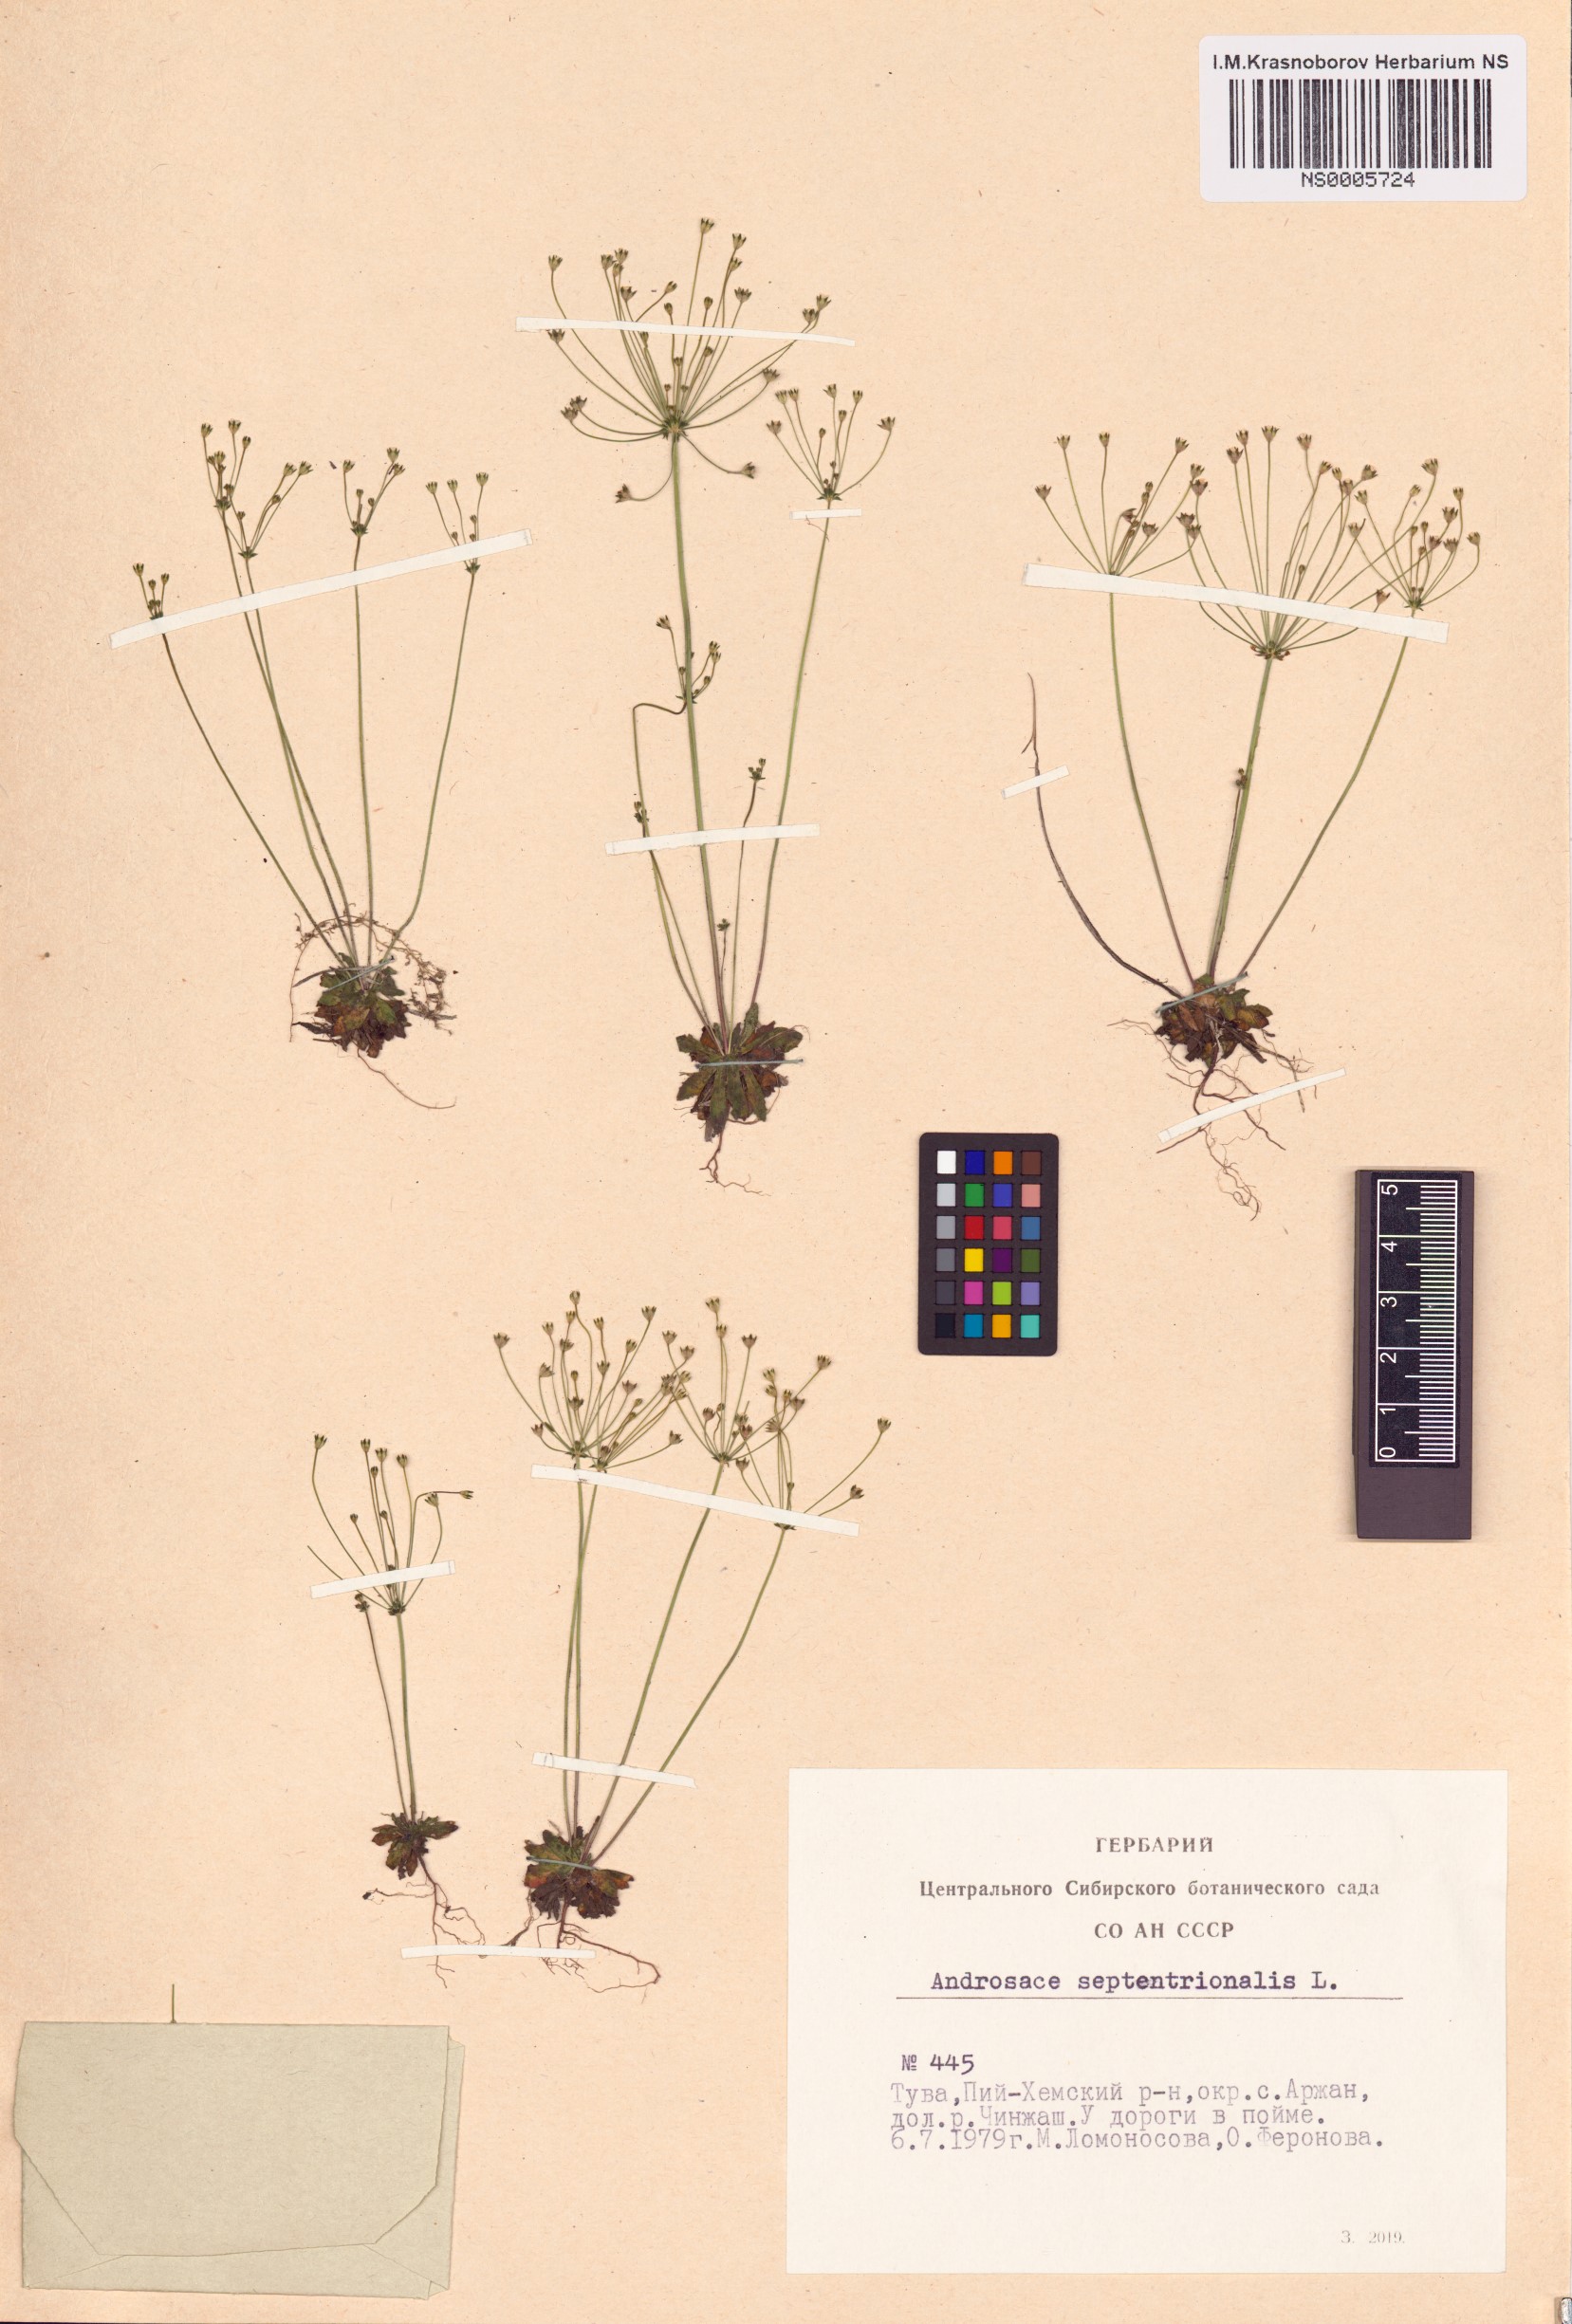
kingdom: Plantae
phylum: Tracheophyta
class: Magnoliopsida
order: Ericales
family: Primulaceae
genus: Androsace
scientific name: Androsace septentrionalis
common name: Hairy northern fairy-candelabra
